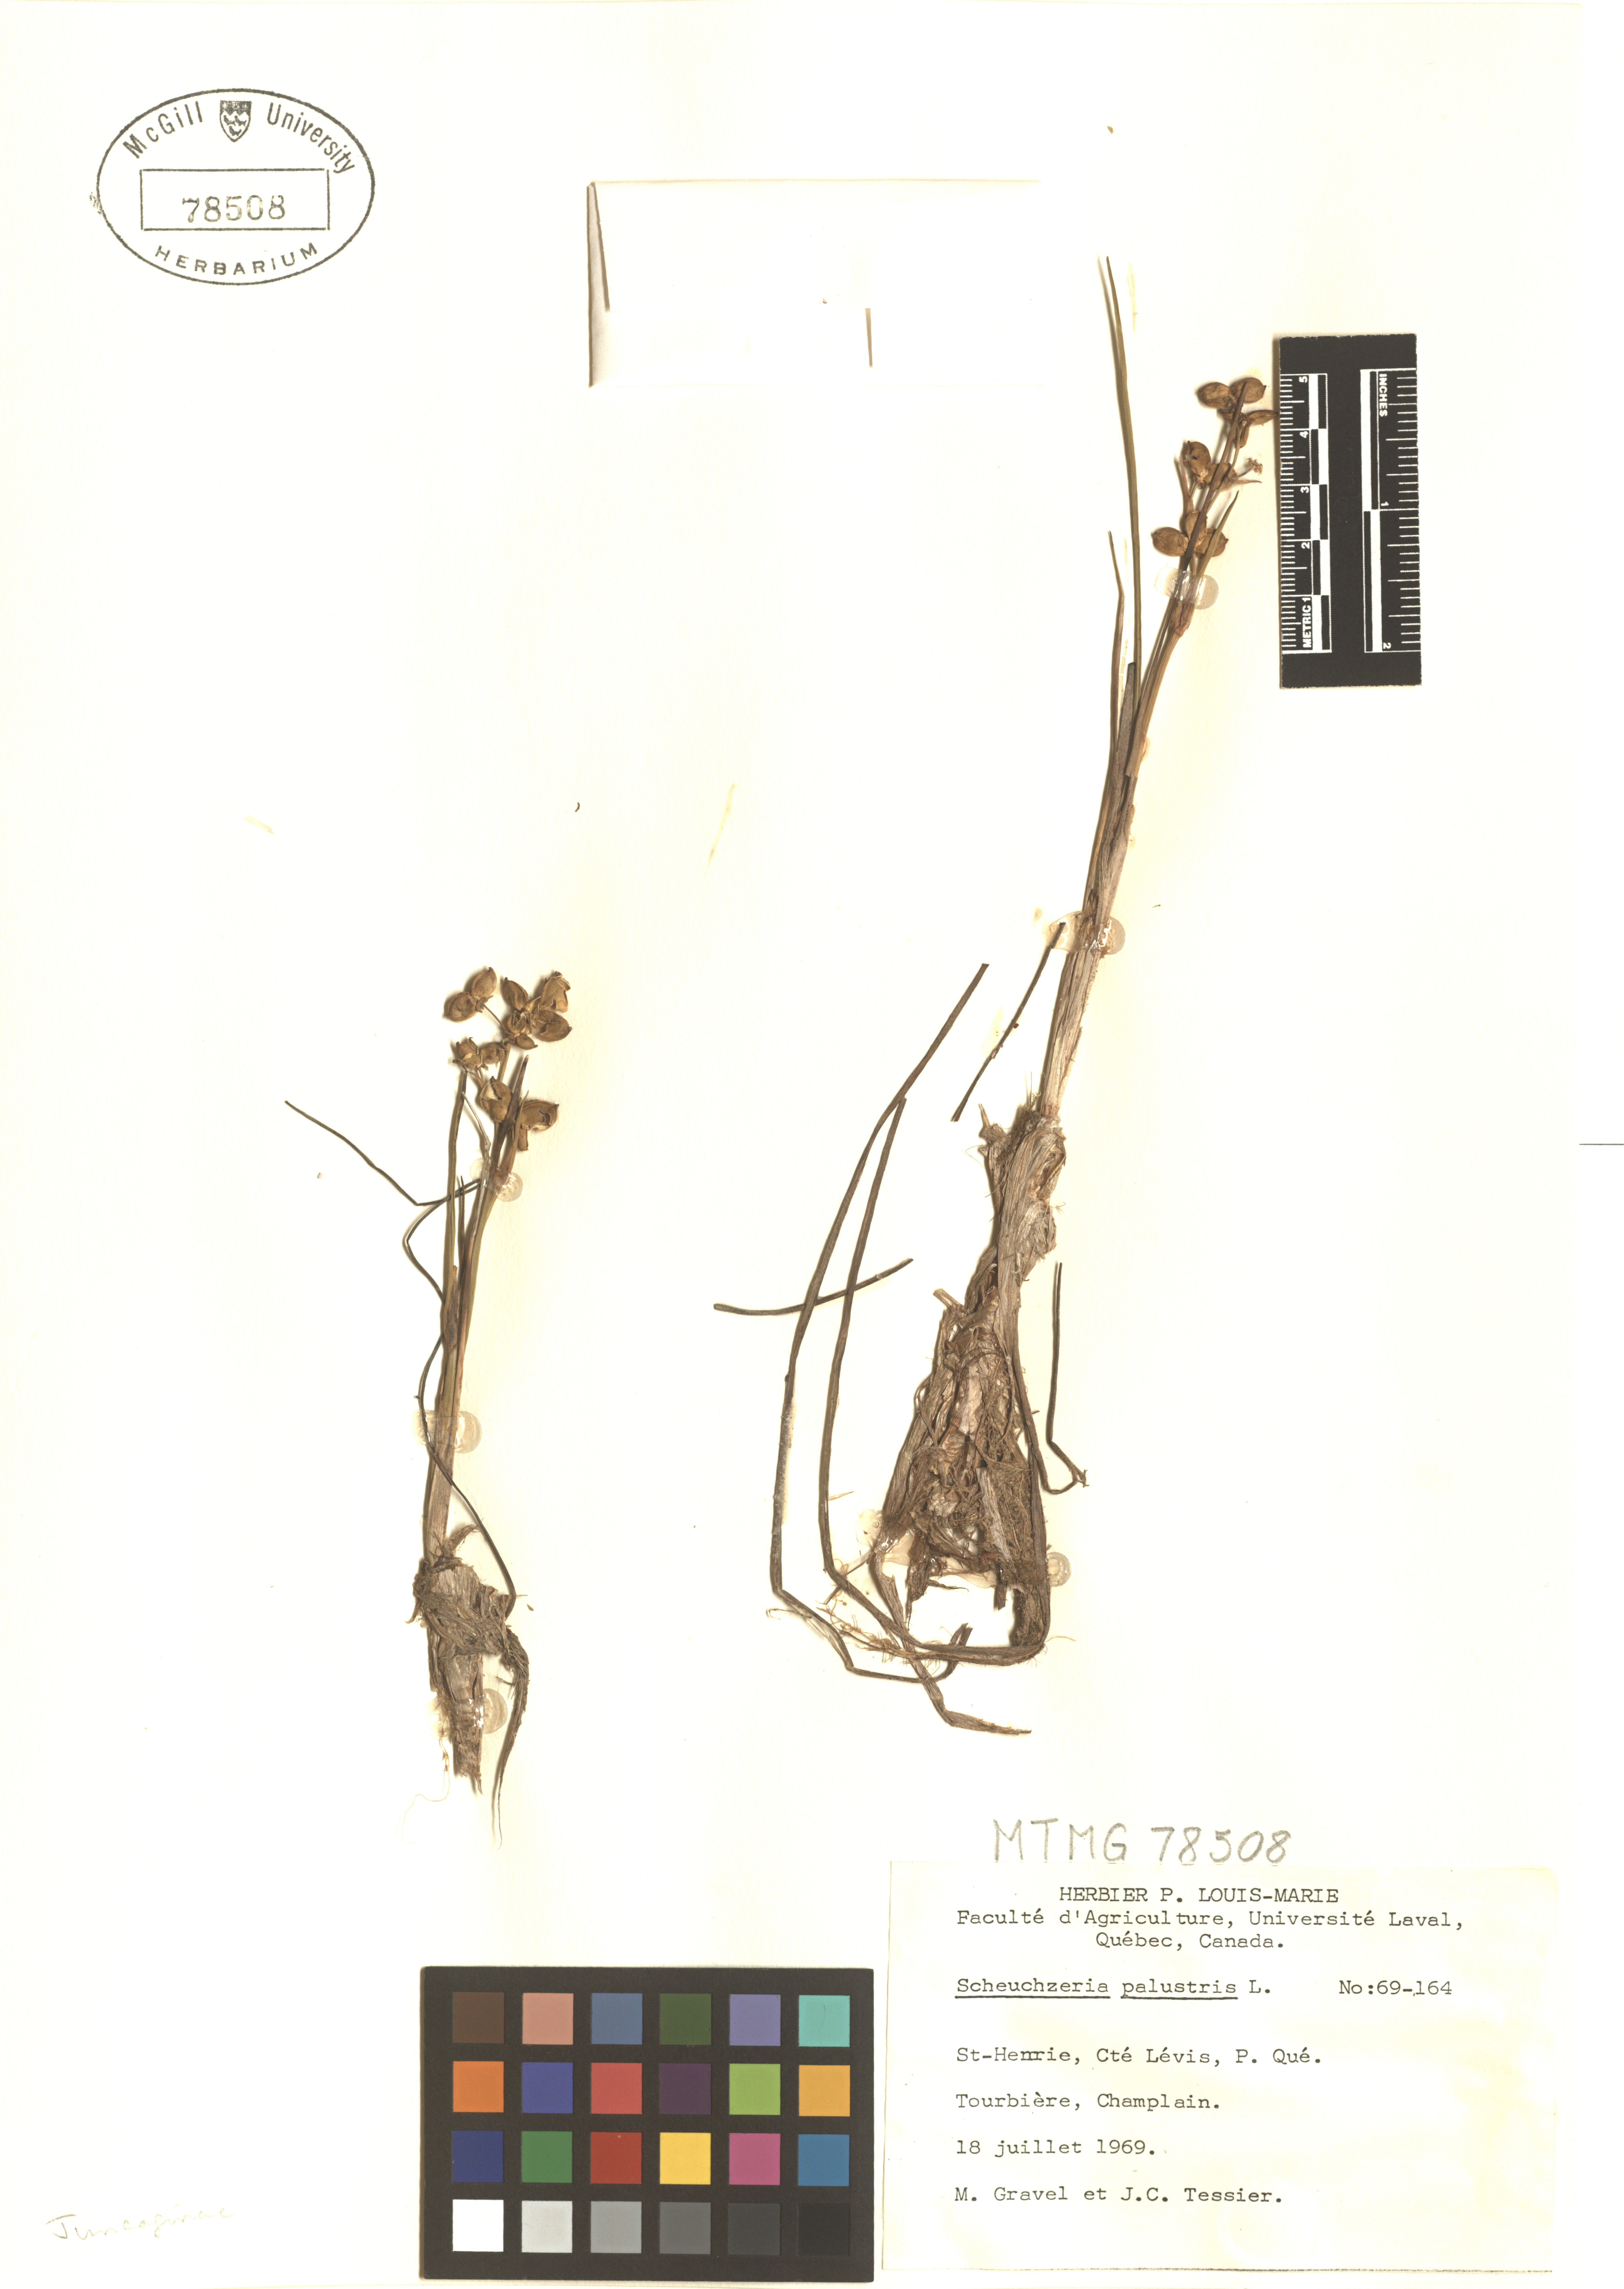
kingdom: Plantae
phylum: Tracheophyta
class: Liliopsida
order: Alismatales
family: Scheuchzeriaceae
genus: Scheuchzeria
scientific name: Scheuchzeria palustris
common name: Rannoch-rush
